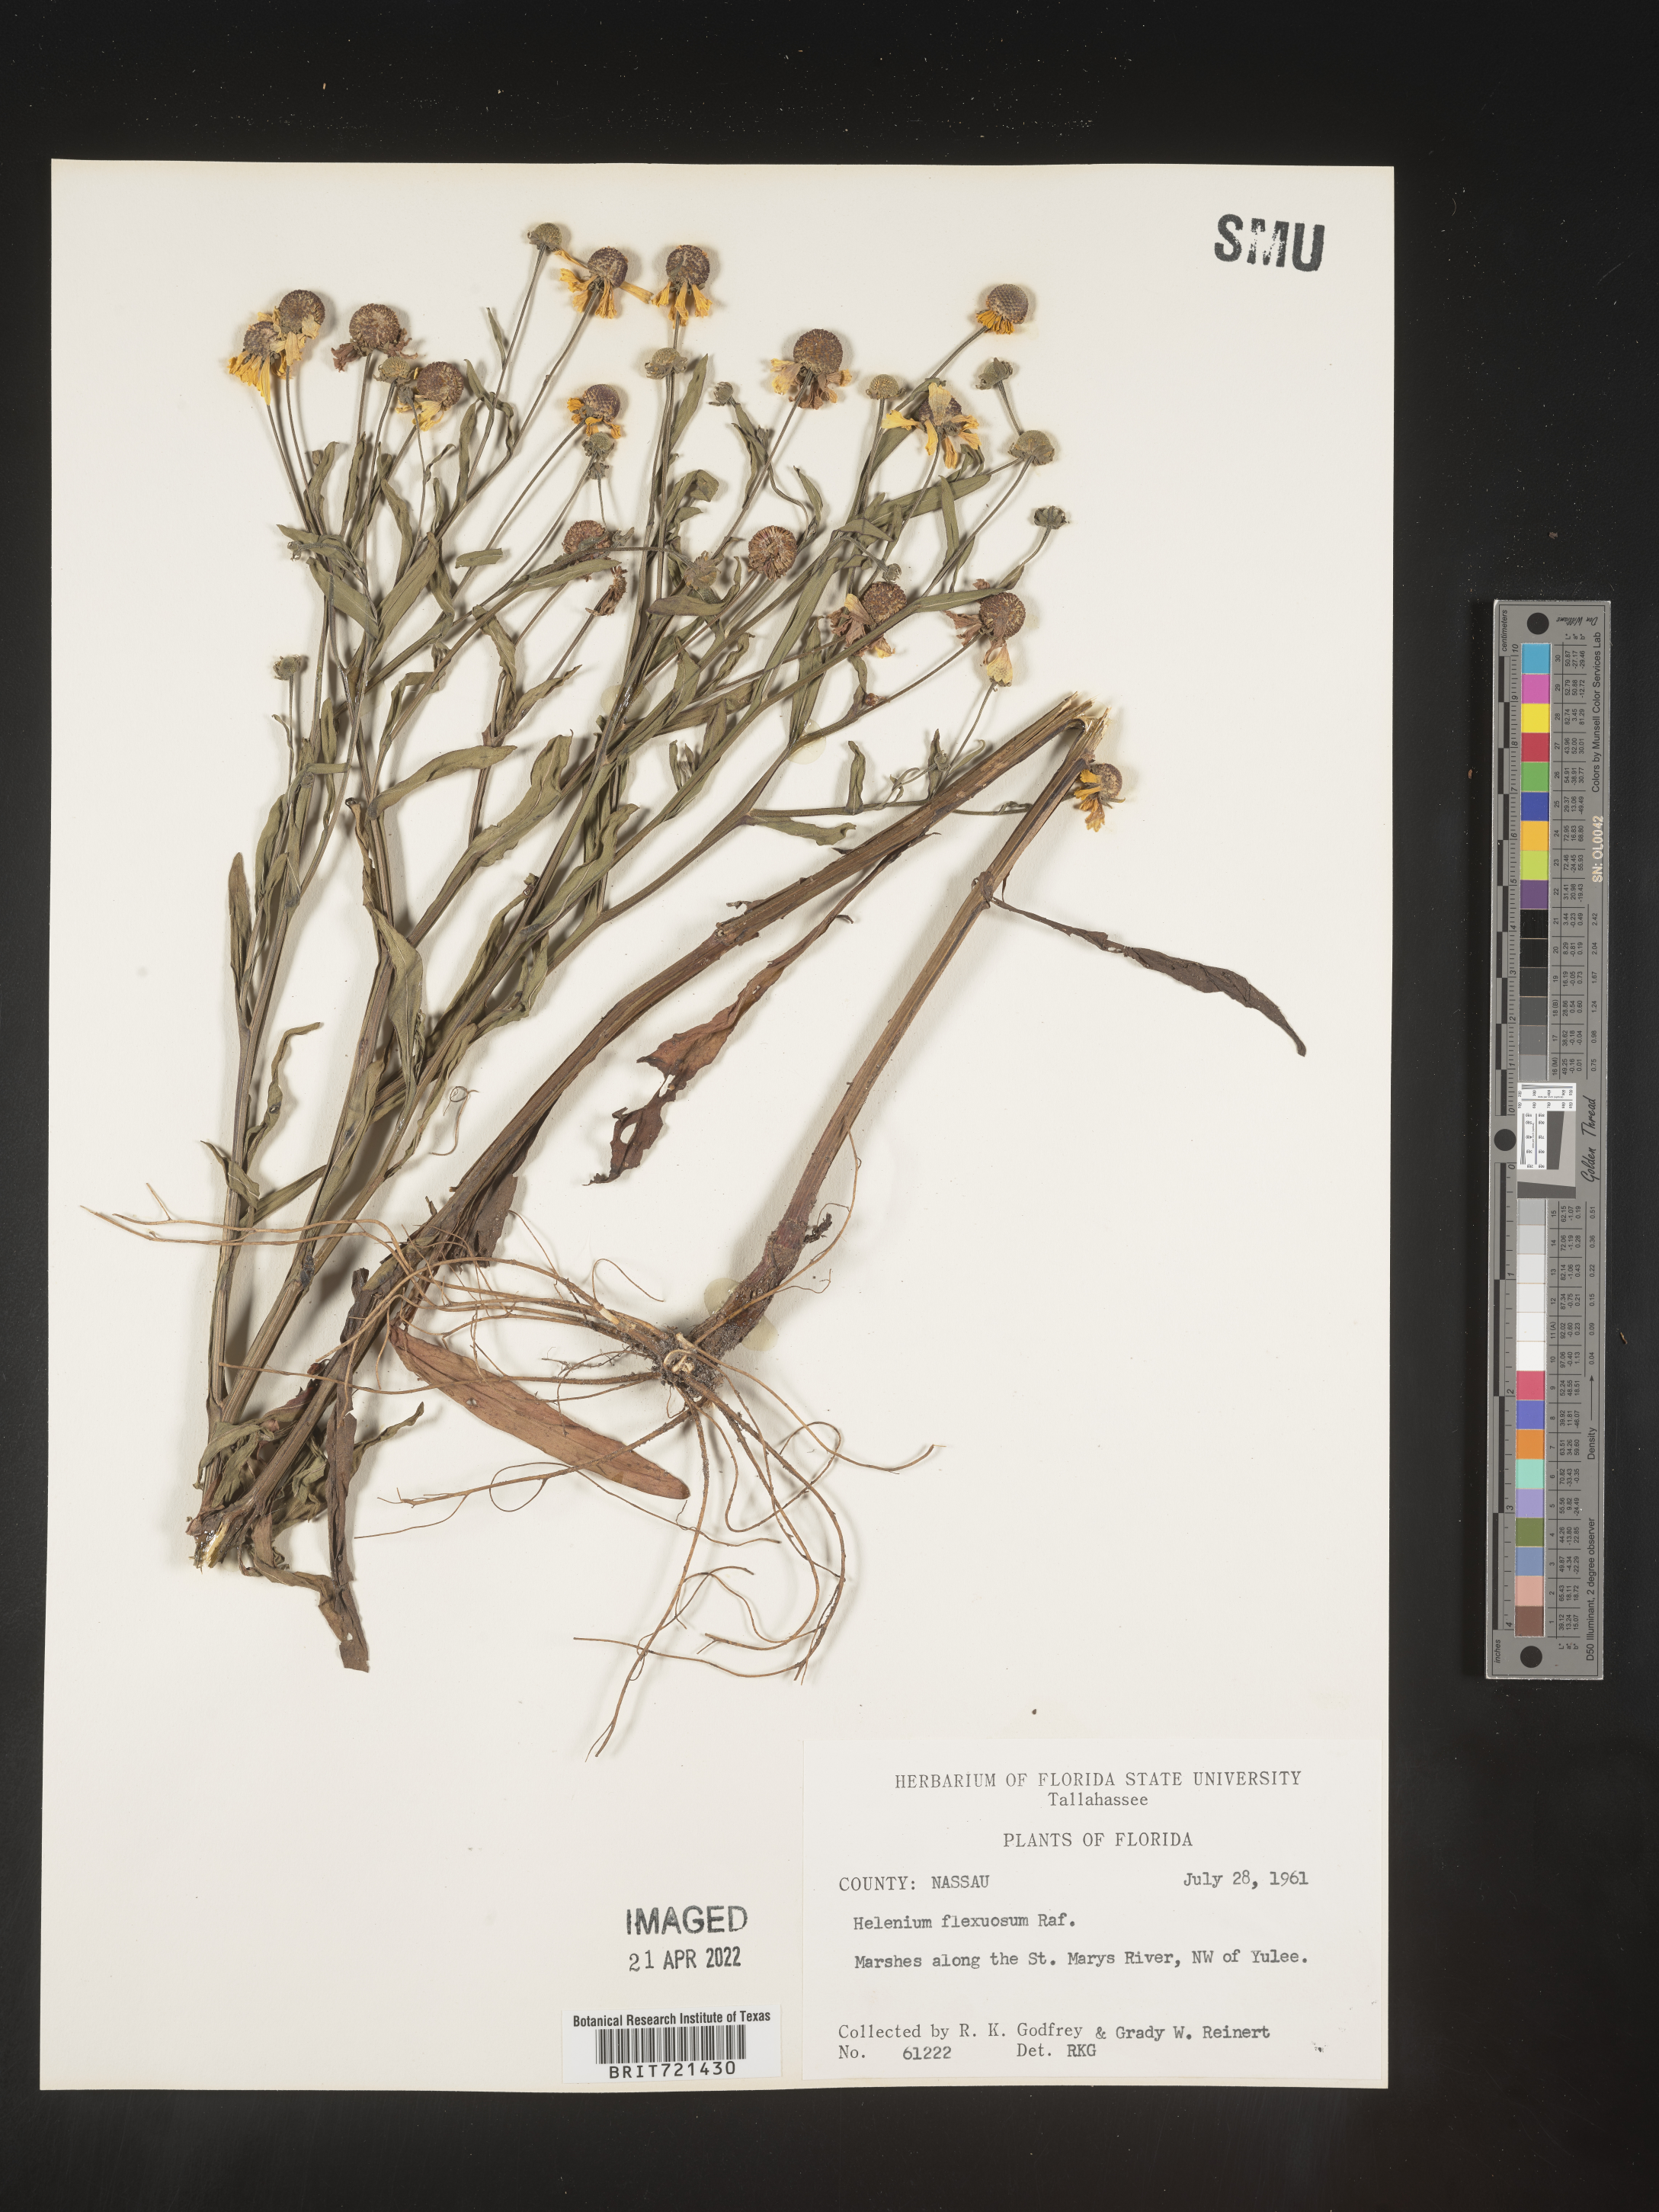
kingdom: Plantae
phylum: Tracheophyta
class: Magnoliopsida
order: Asterales
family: Asteraceae
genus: Helenium
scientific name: Helenium flexuosum
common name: Naked-flowered sneezeweed
